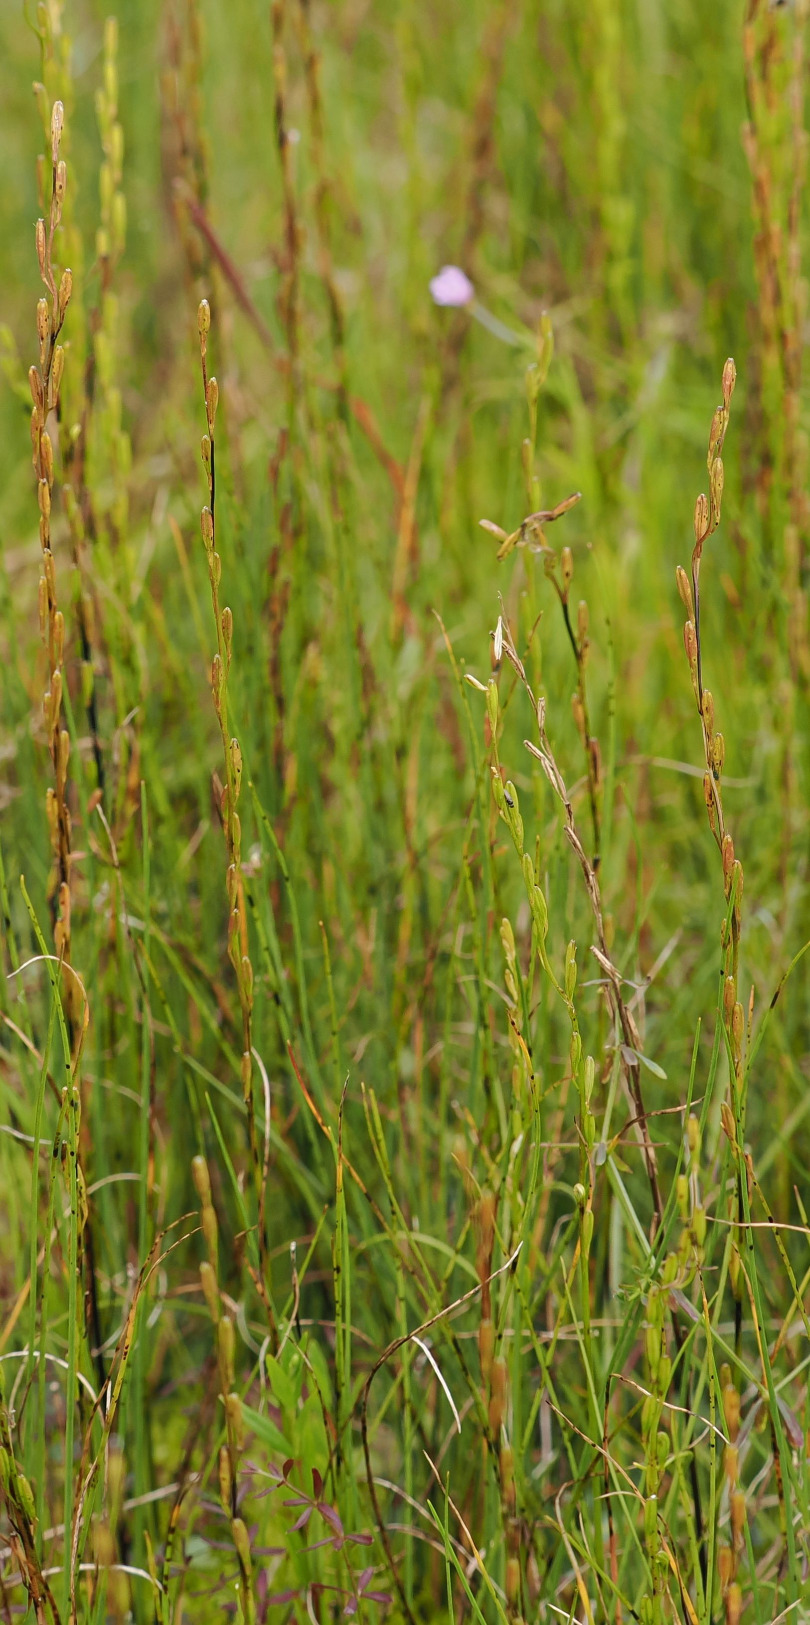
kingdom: Plantae
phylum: Tracheophyta
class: Liliopsida
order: Alismatales
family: Juncaginaceae
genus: Triglochin
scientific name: Triglochin palustris
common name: Kær-trehage
